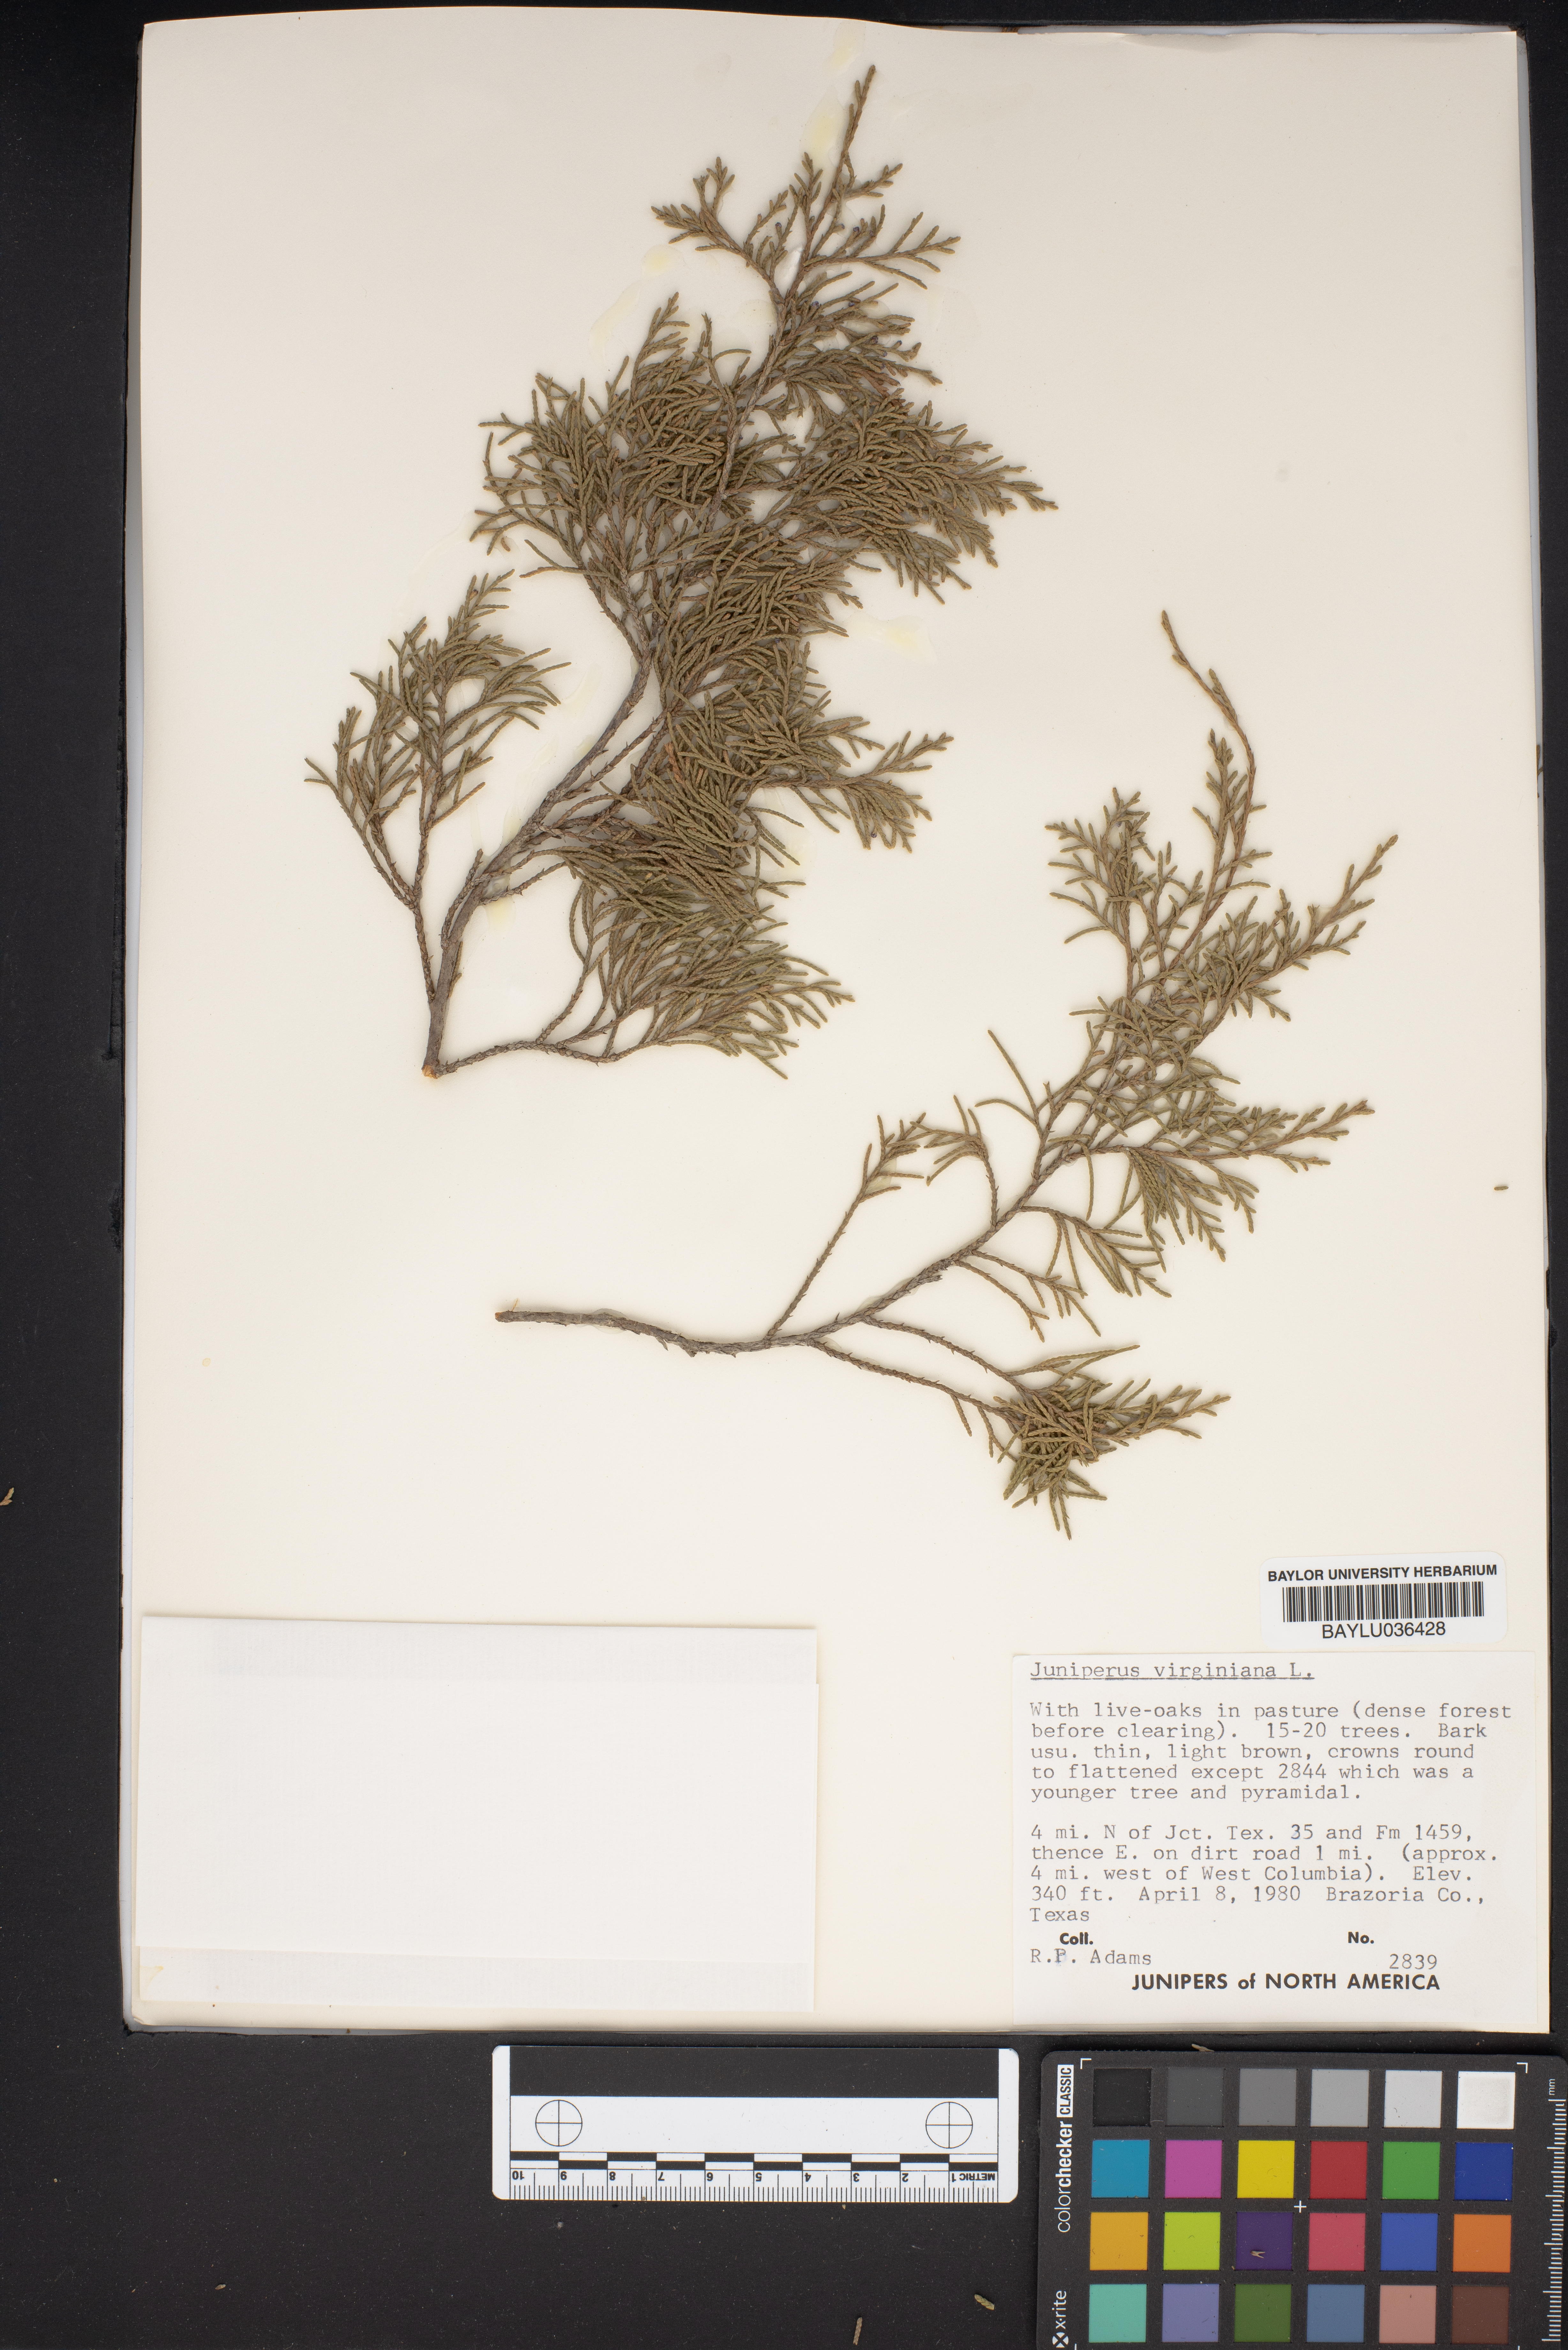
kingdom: Plantae
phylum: Tracheophyta
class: Pinopsida
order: Pinales
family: Cupressaceae
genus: Juniperus
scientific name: Juniperus virginiana
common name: Red juniper
